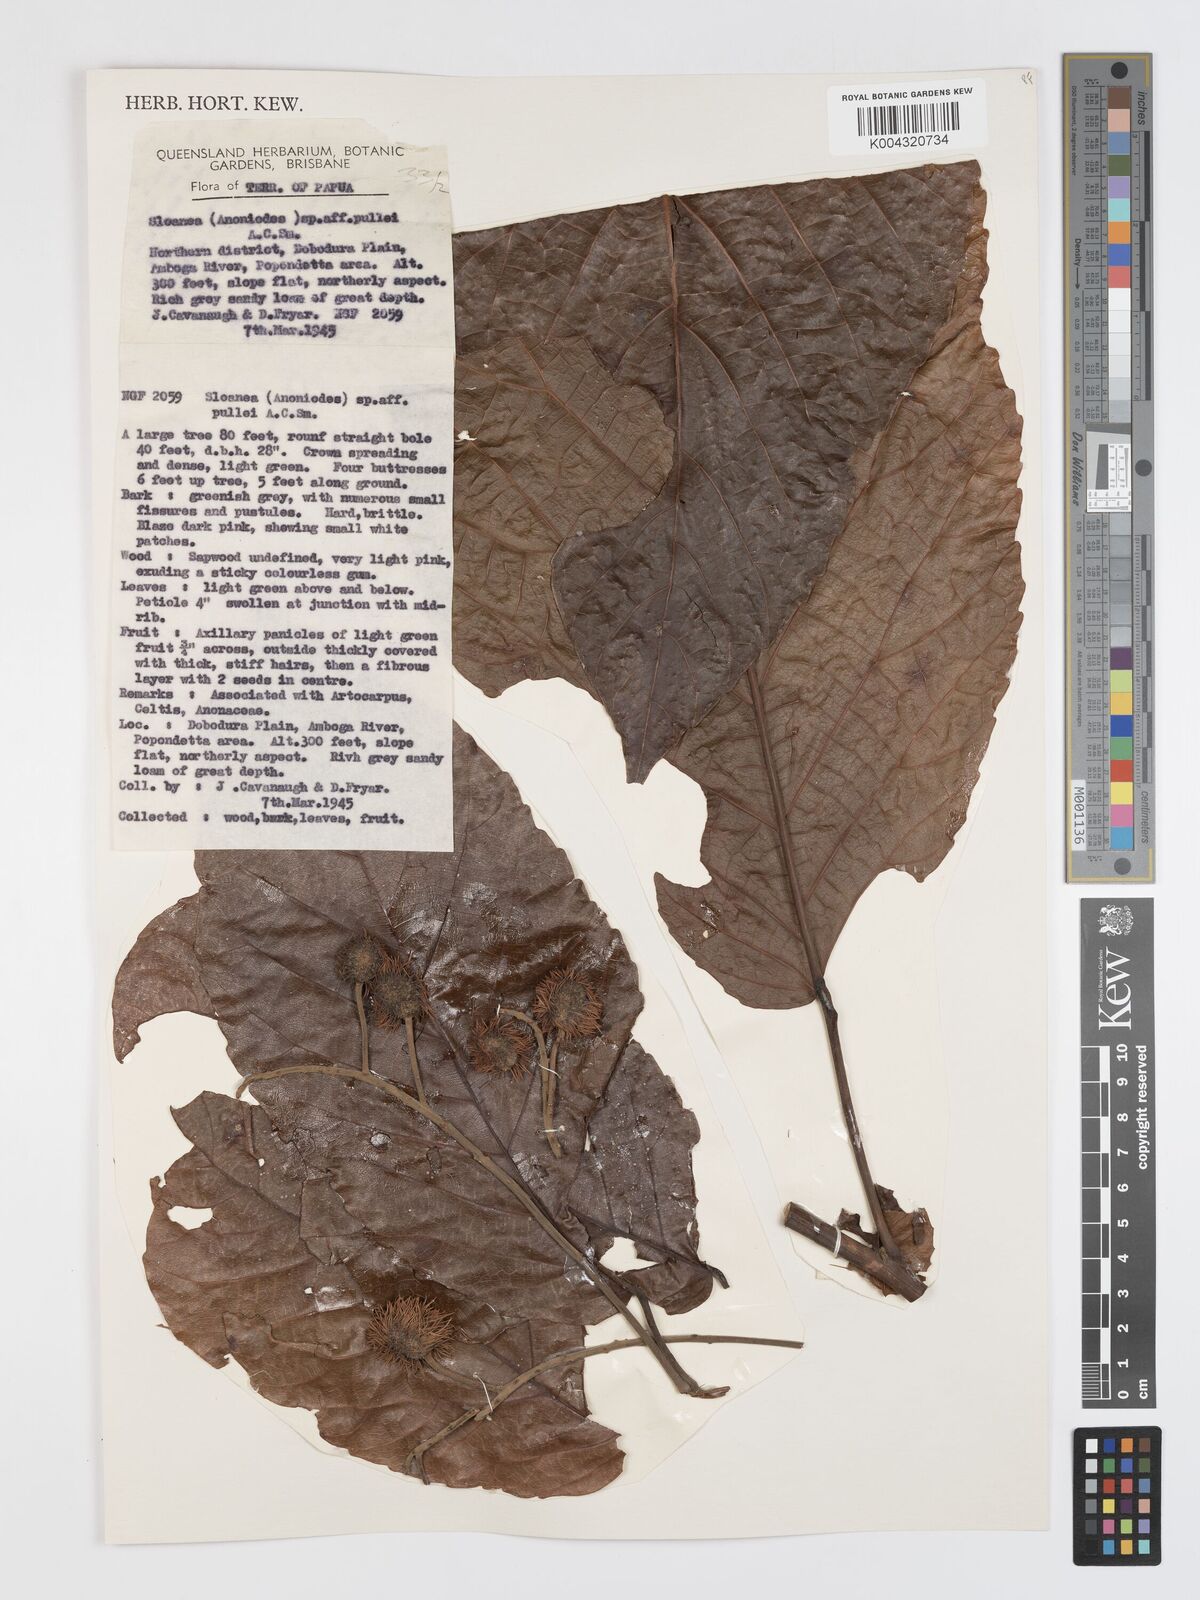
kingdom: Plantae
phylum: Tracheophyta
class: Magnoliopsida
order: Oxalidales
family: Elaeocarpaceae
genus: Sloanea
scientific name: Sloanea pullei
